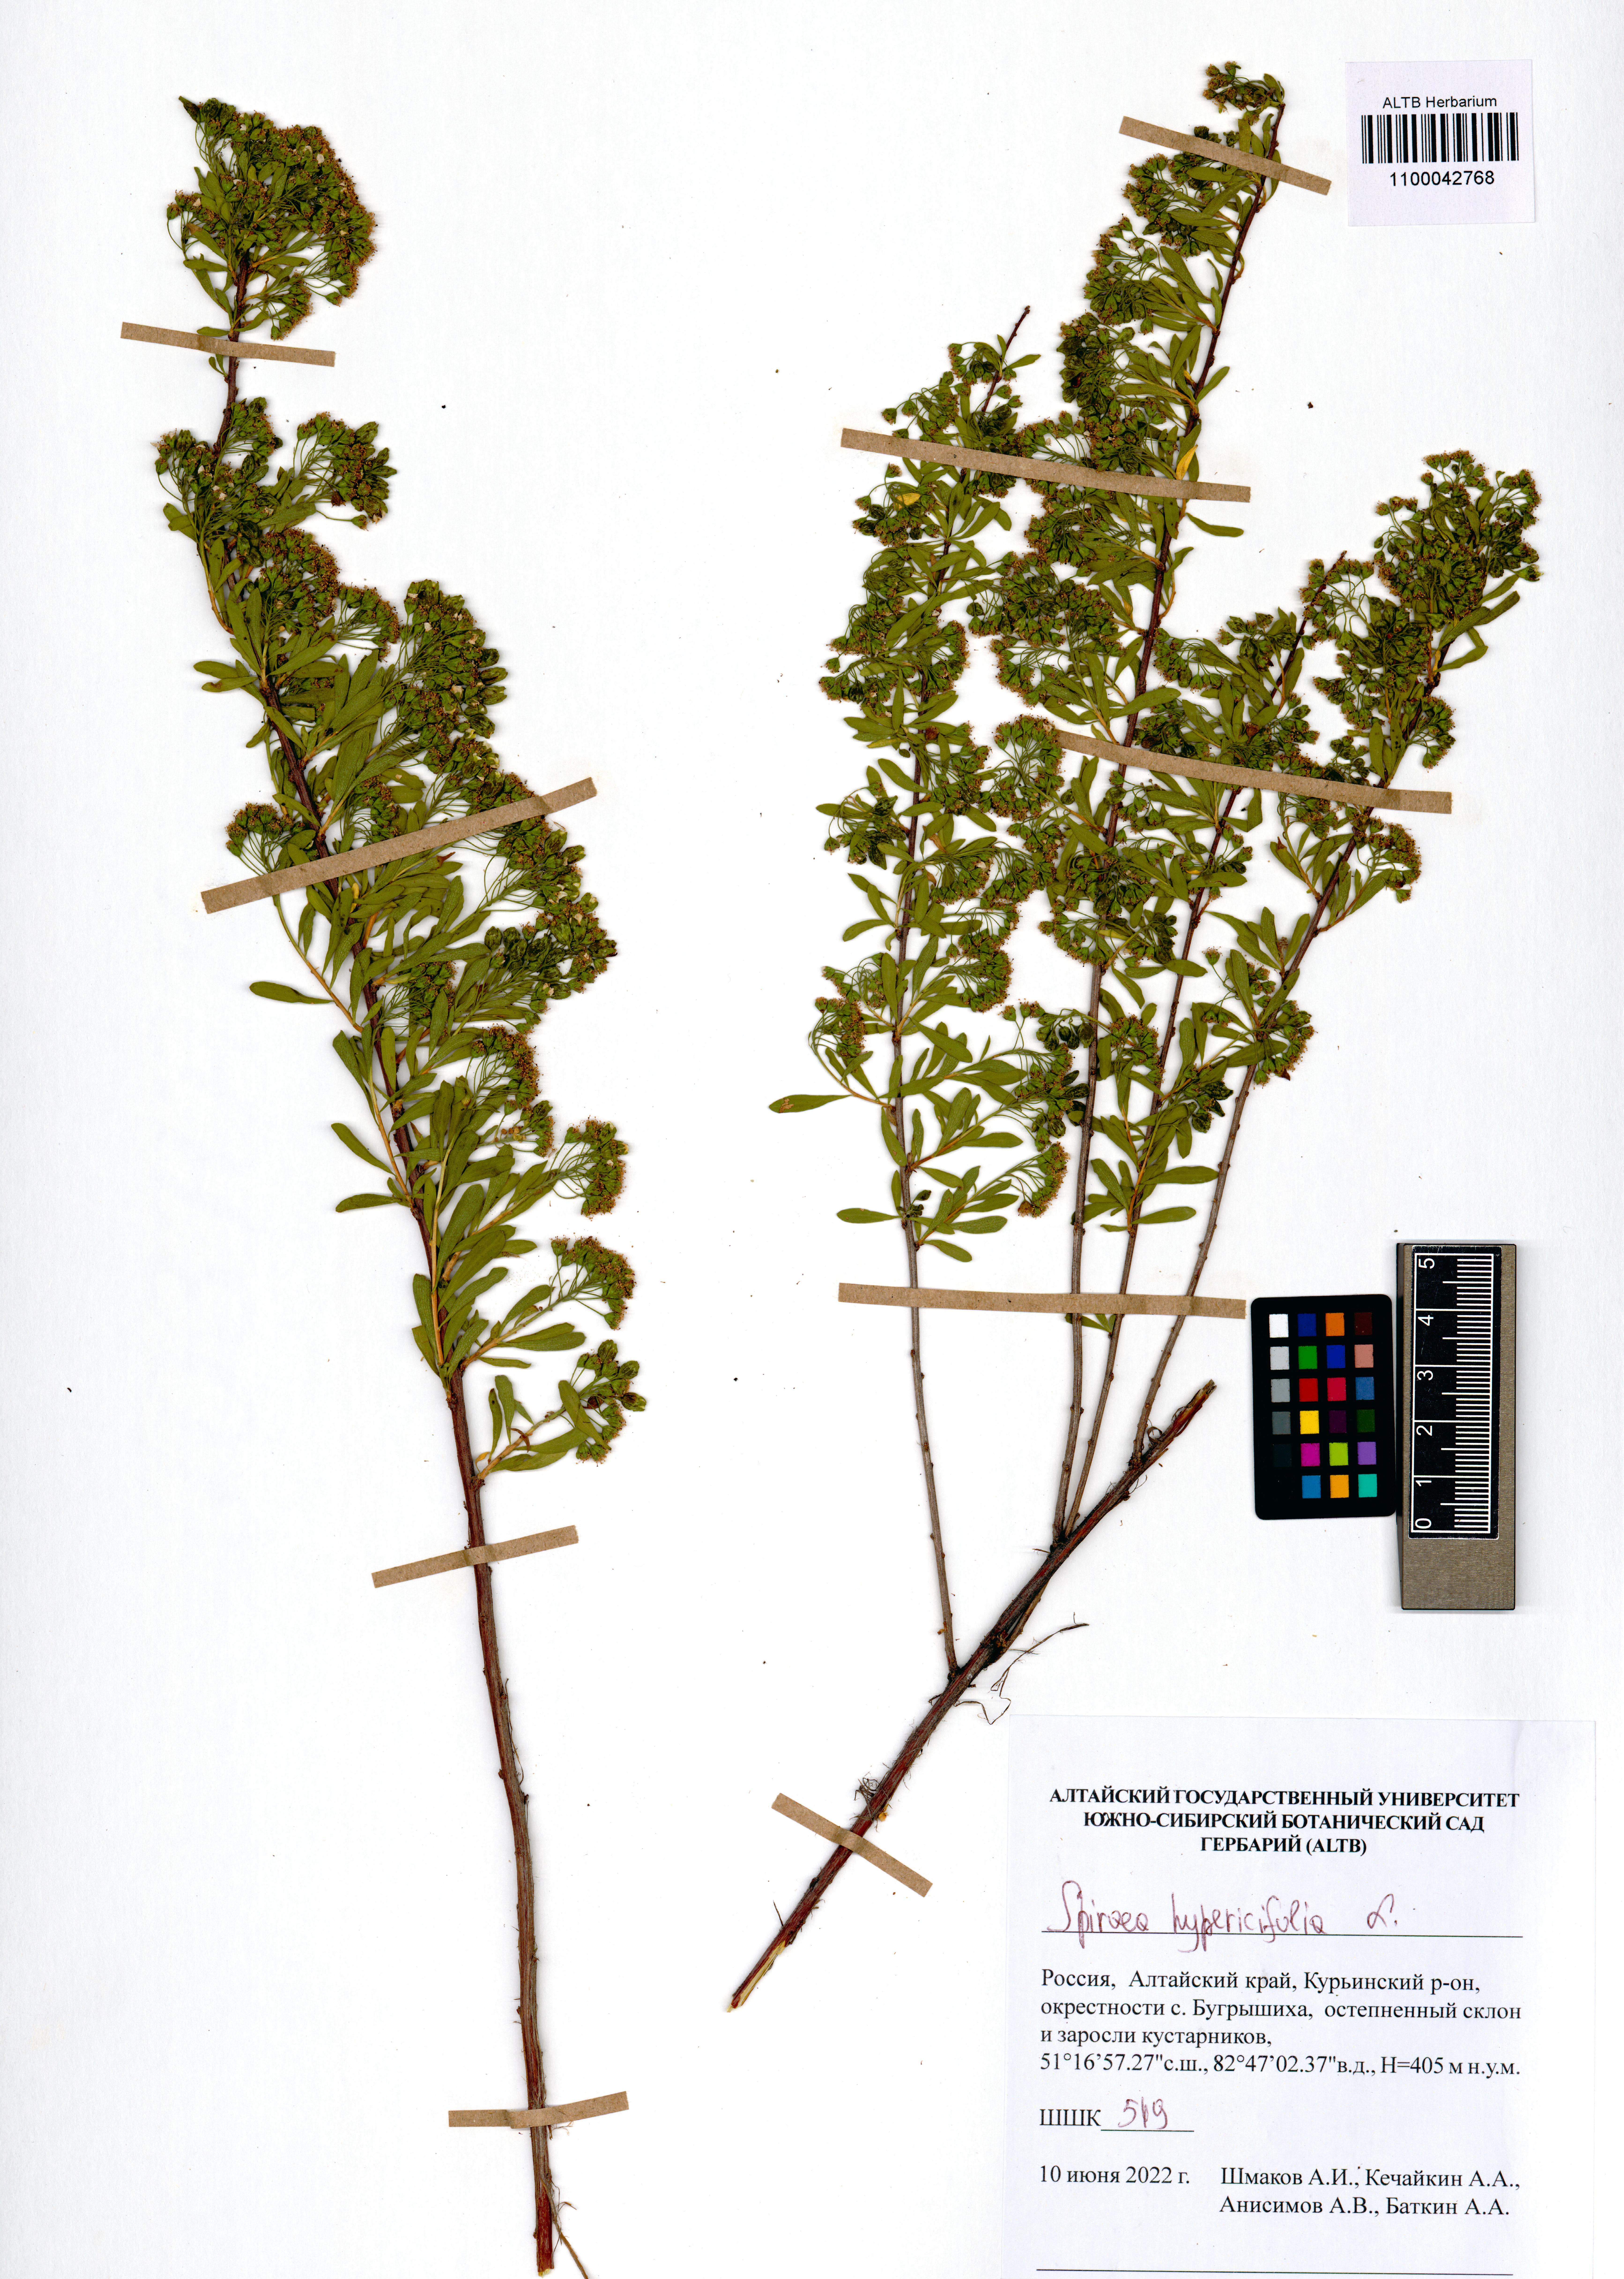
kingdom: Plantae
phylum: Tracheophyta
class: Magnoliopsida
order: Rosales
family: Rosaceae
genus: Spiraea
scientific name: Spiraea hypericifolia
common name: Iberian spirea
